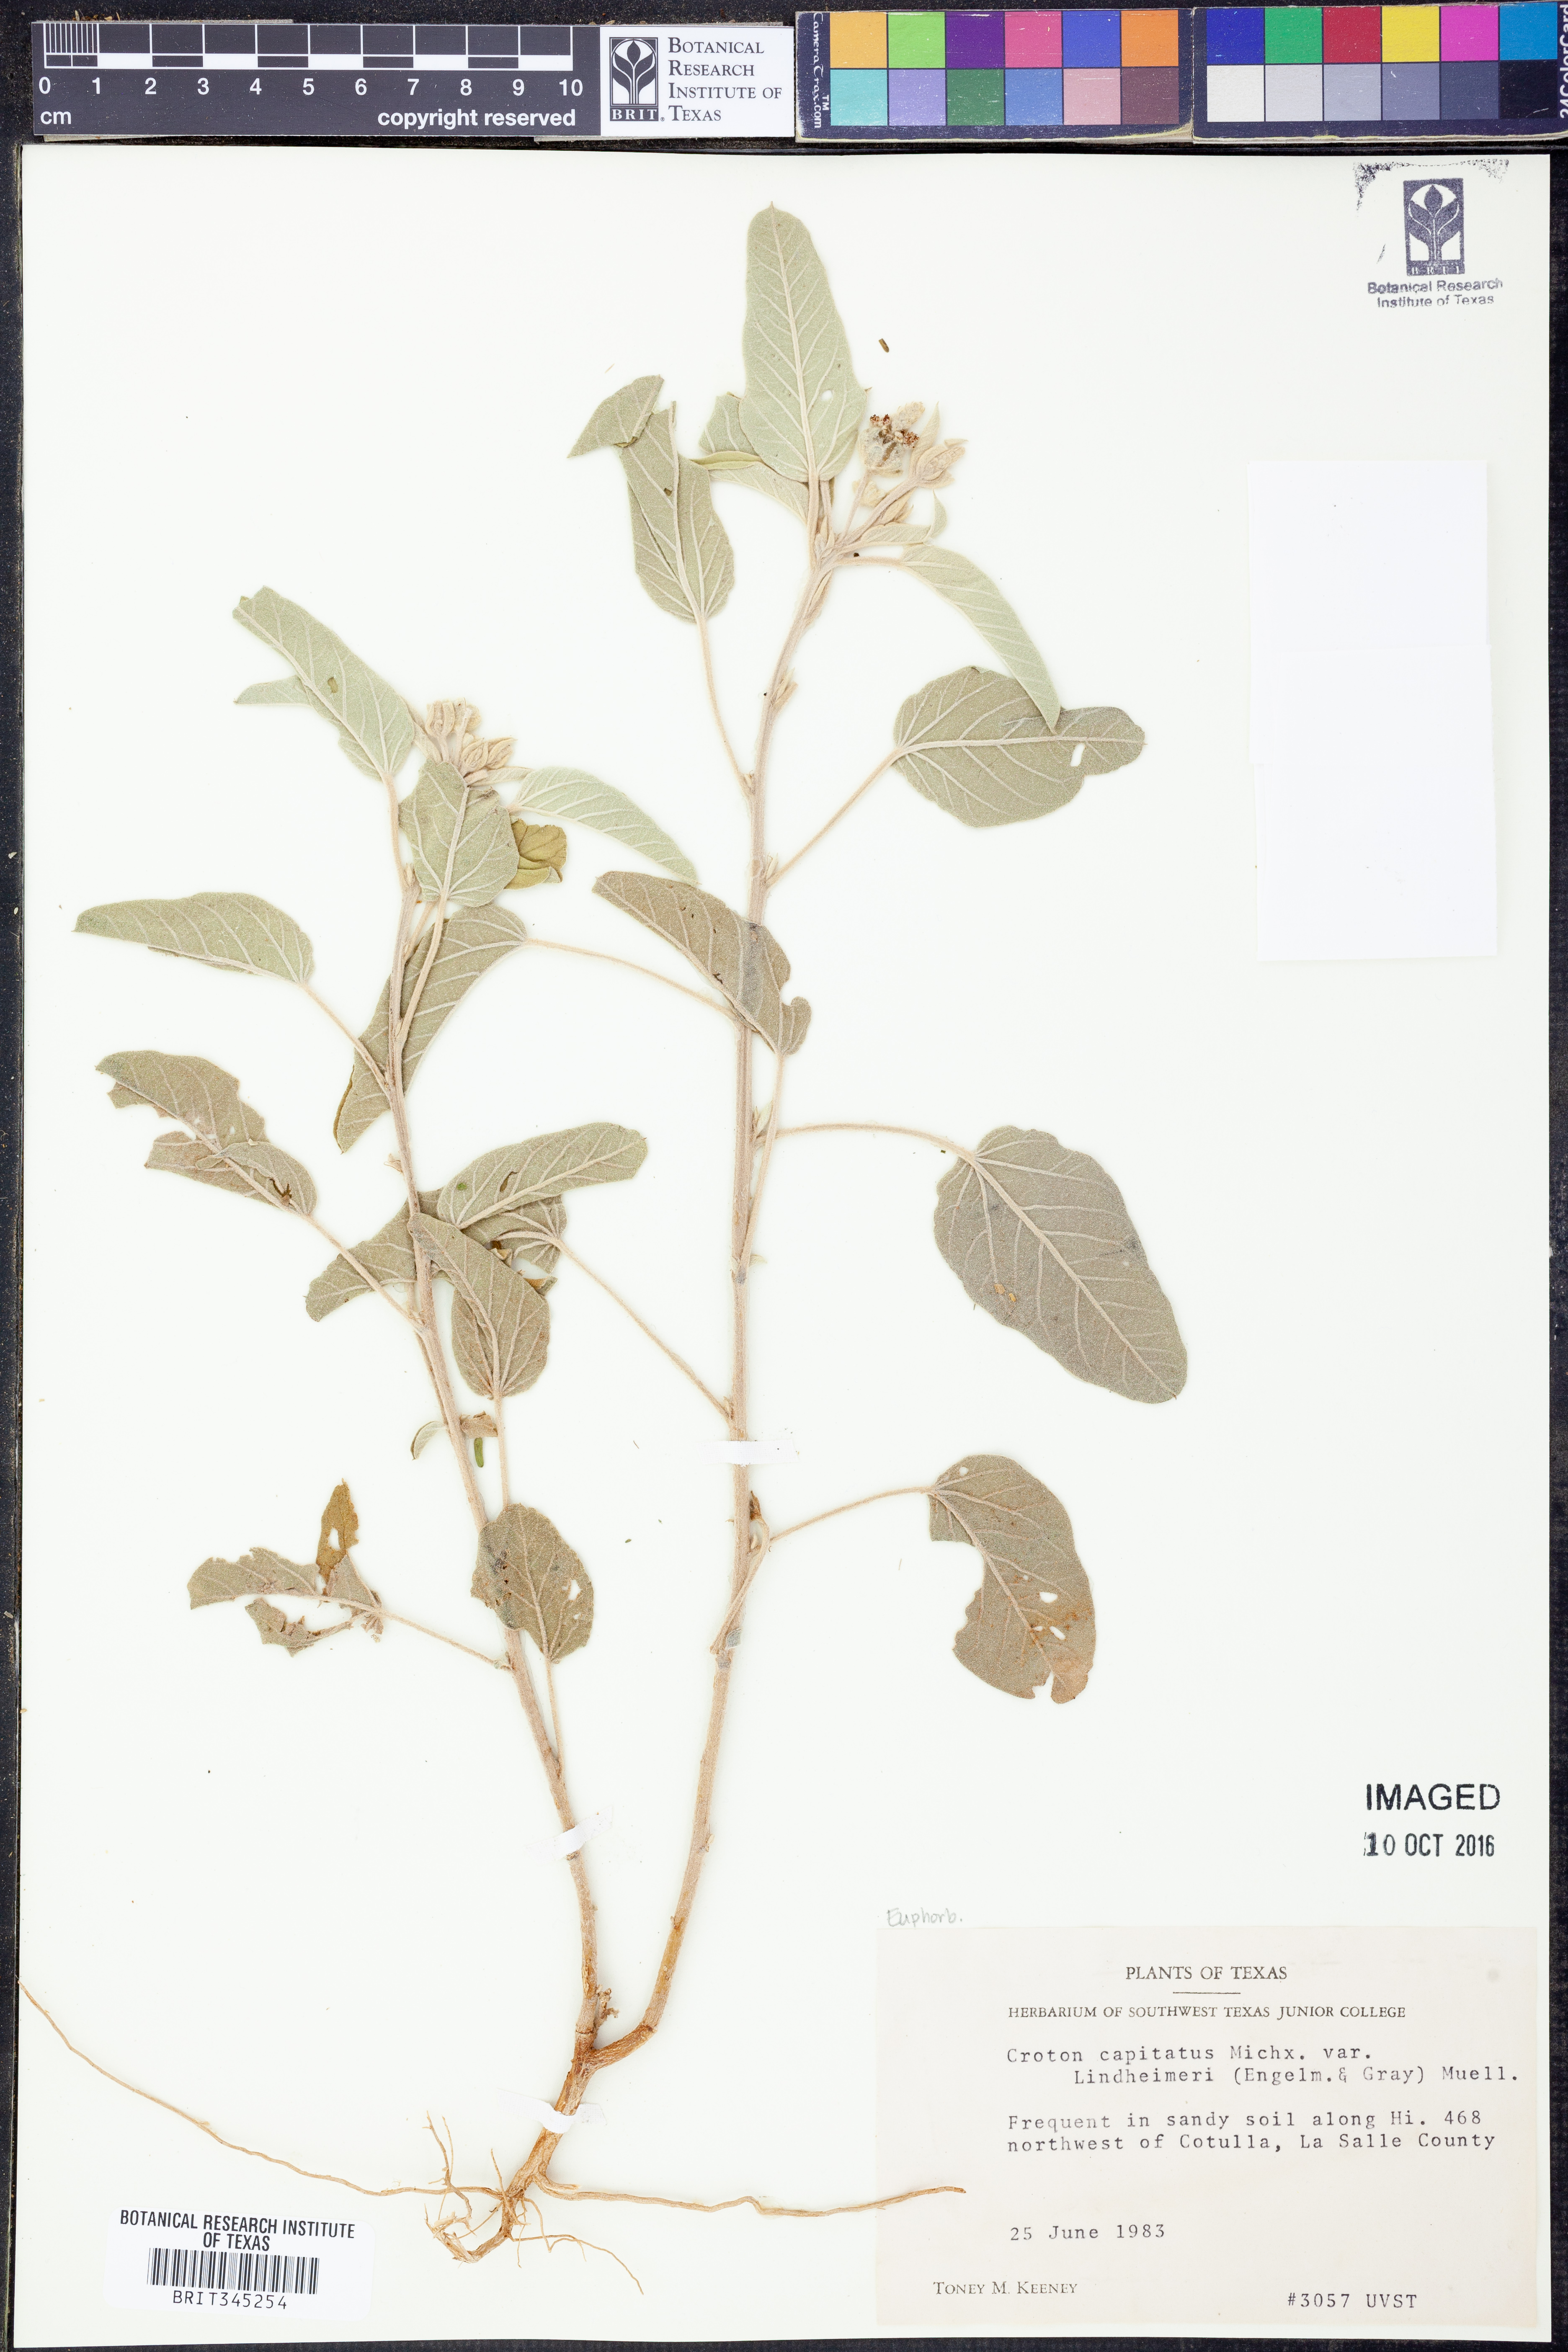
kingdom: Plantae
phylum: Tracheophyta
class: Magnoliopsida
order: Malpighiales
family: Euphorbiaceae
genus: Croton
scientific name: Croton lindheimeri
